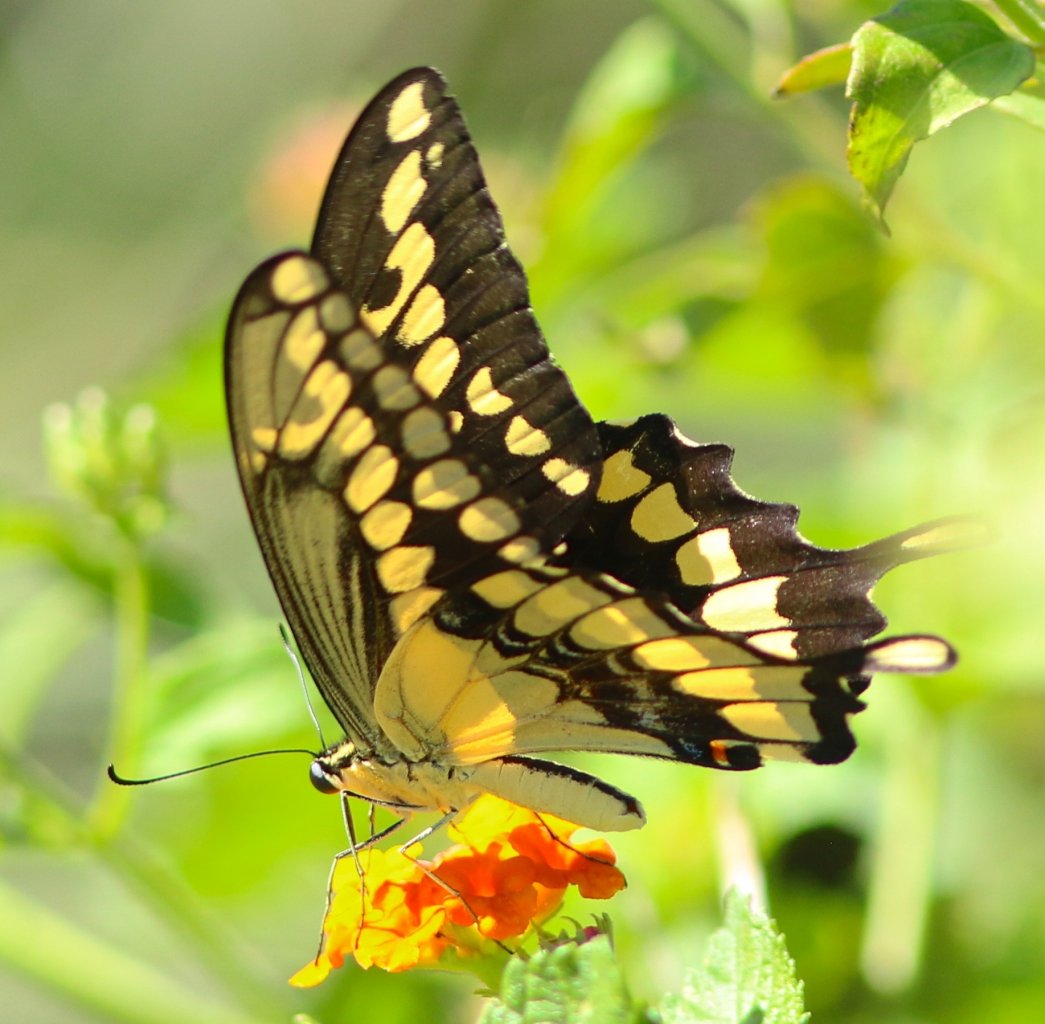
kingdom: Animalia
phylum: Arthropoda
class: Insecta
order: Lepidoptera
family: Papilionidae
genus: Papilio
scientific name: Papilio
